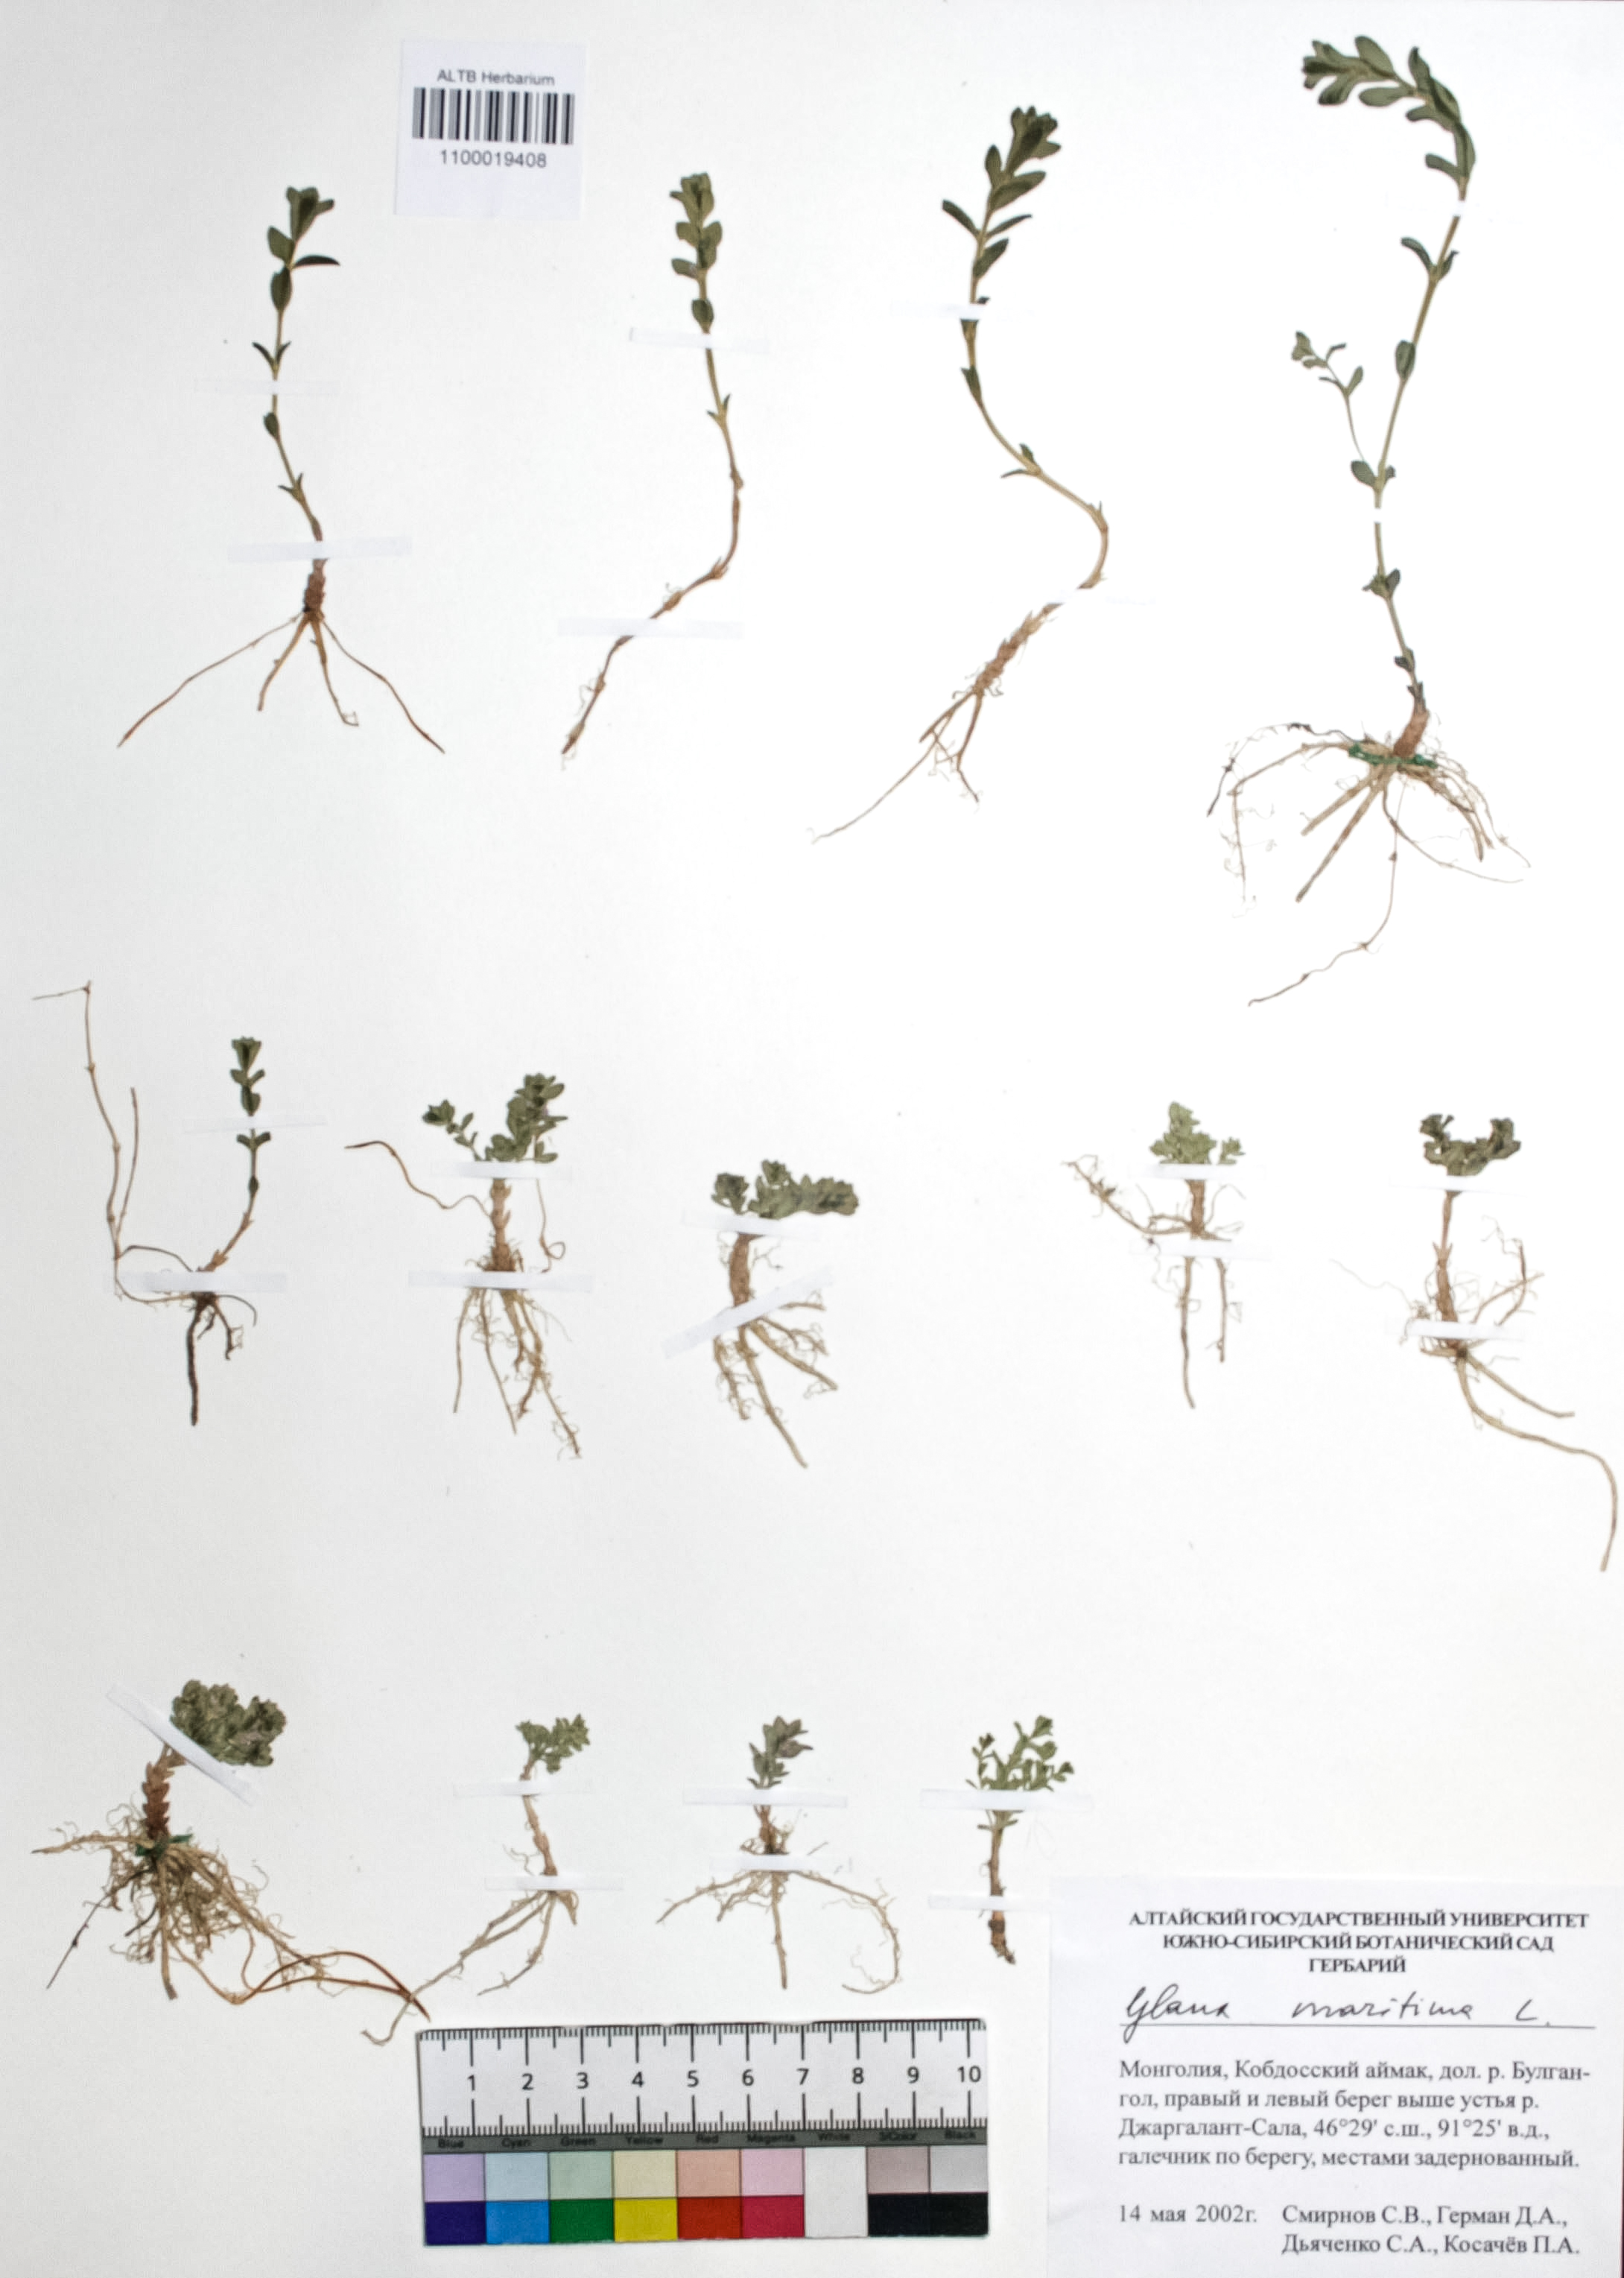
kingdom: Plantae
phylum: Tracheophyta
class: Magnoliopsida
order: Ericales
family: Primulaceae
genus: Lysimachia
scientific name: Lysimachia maritima
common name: Sea milkwort
